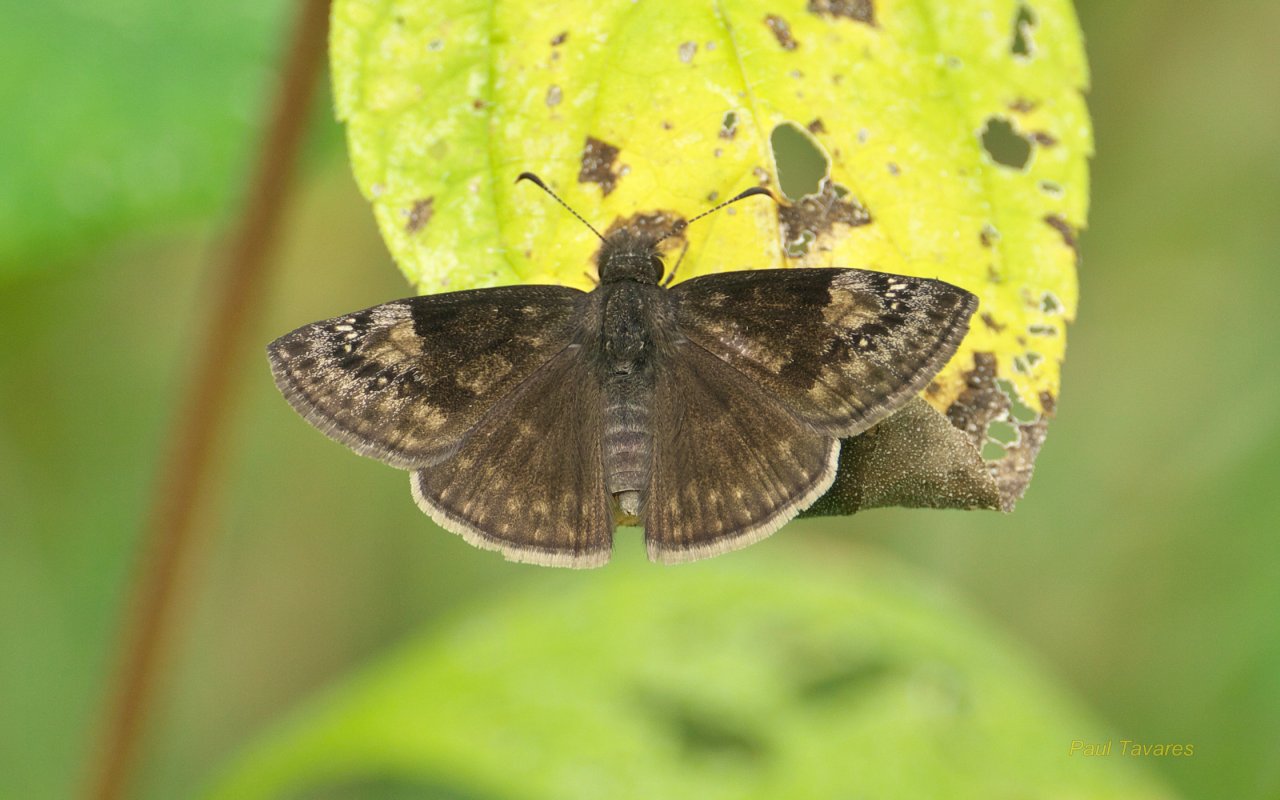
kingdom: Animalia
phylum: Arthropoda
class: Insecta
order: Lepidoptera
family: Hesperiidae
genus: Gesta
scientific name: Gesta
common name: Wild Indigo Duskywing
